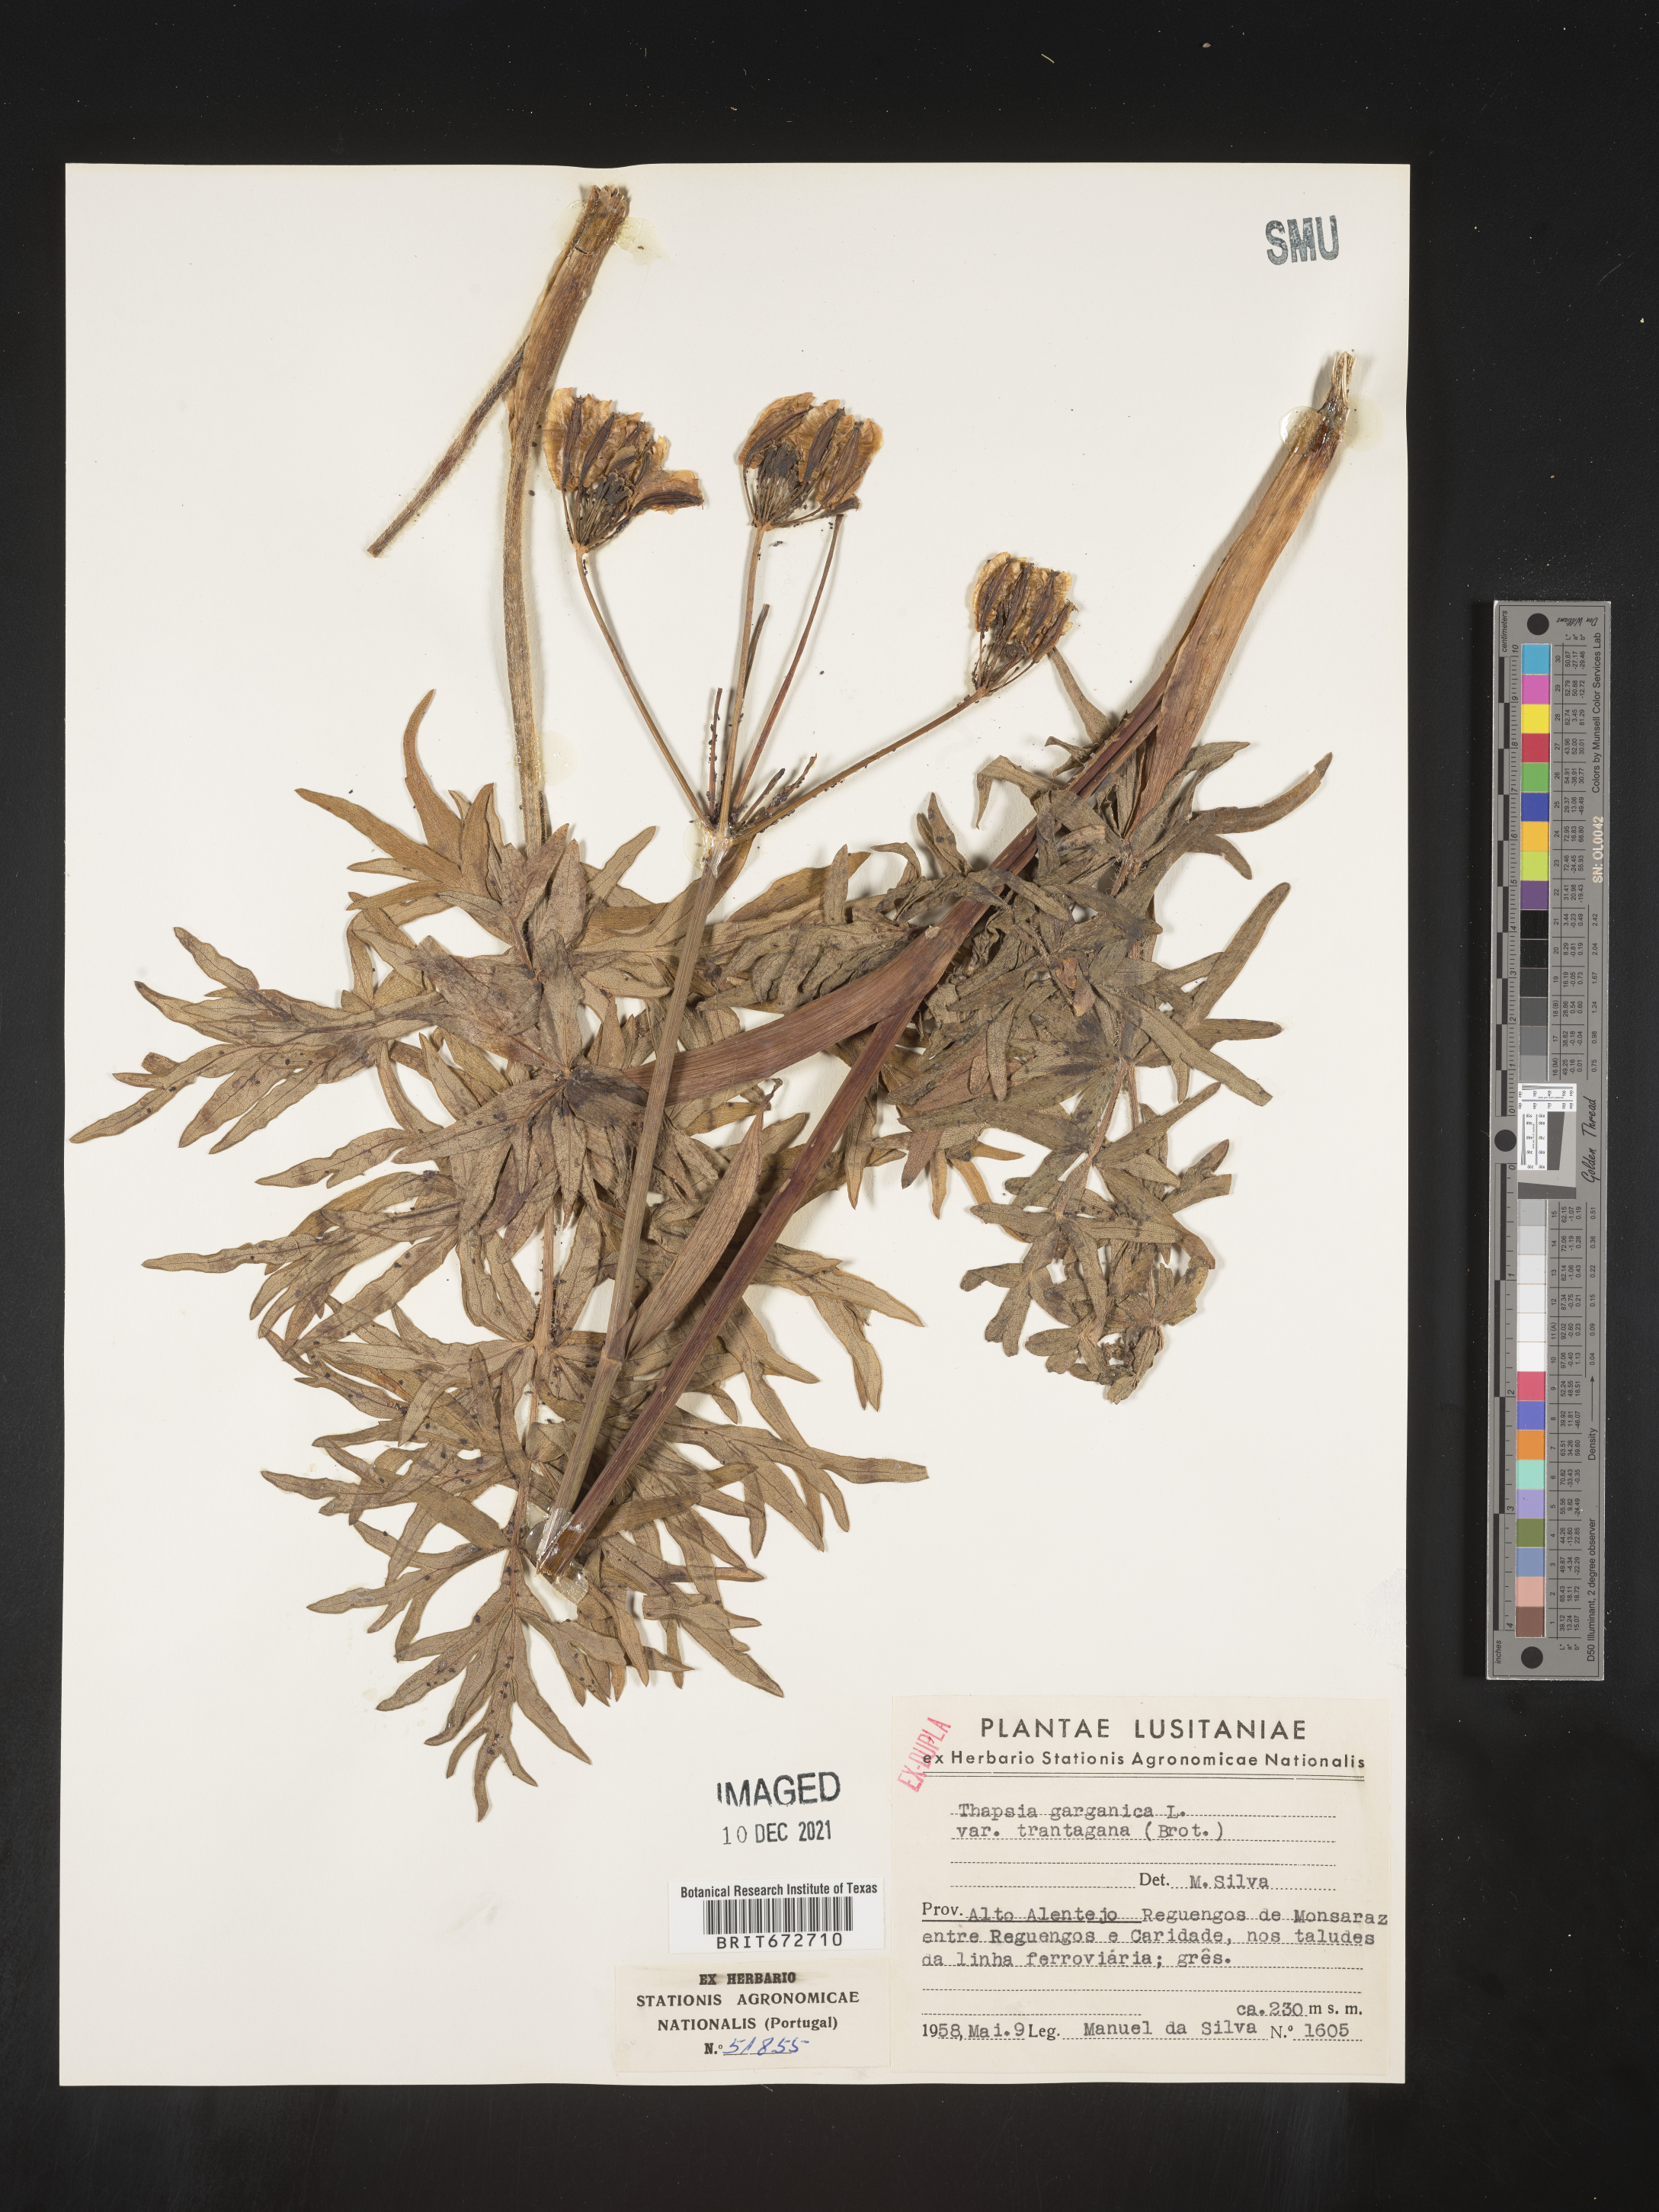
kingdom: Plantae
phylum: Tracheophyta
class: Magnoliopsida
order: Apiales
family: Apiaceae
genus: Thapsia
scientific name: Thapsia
